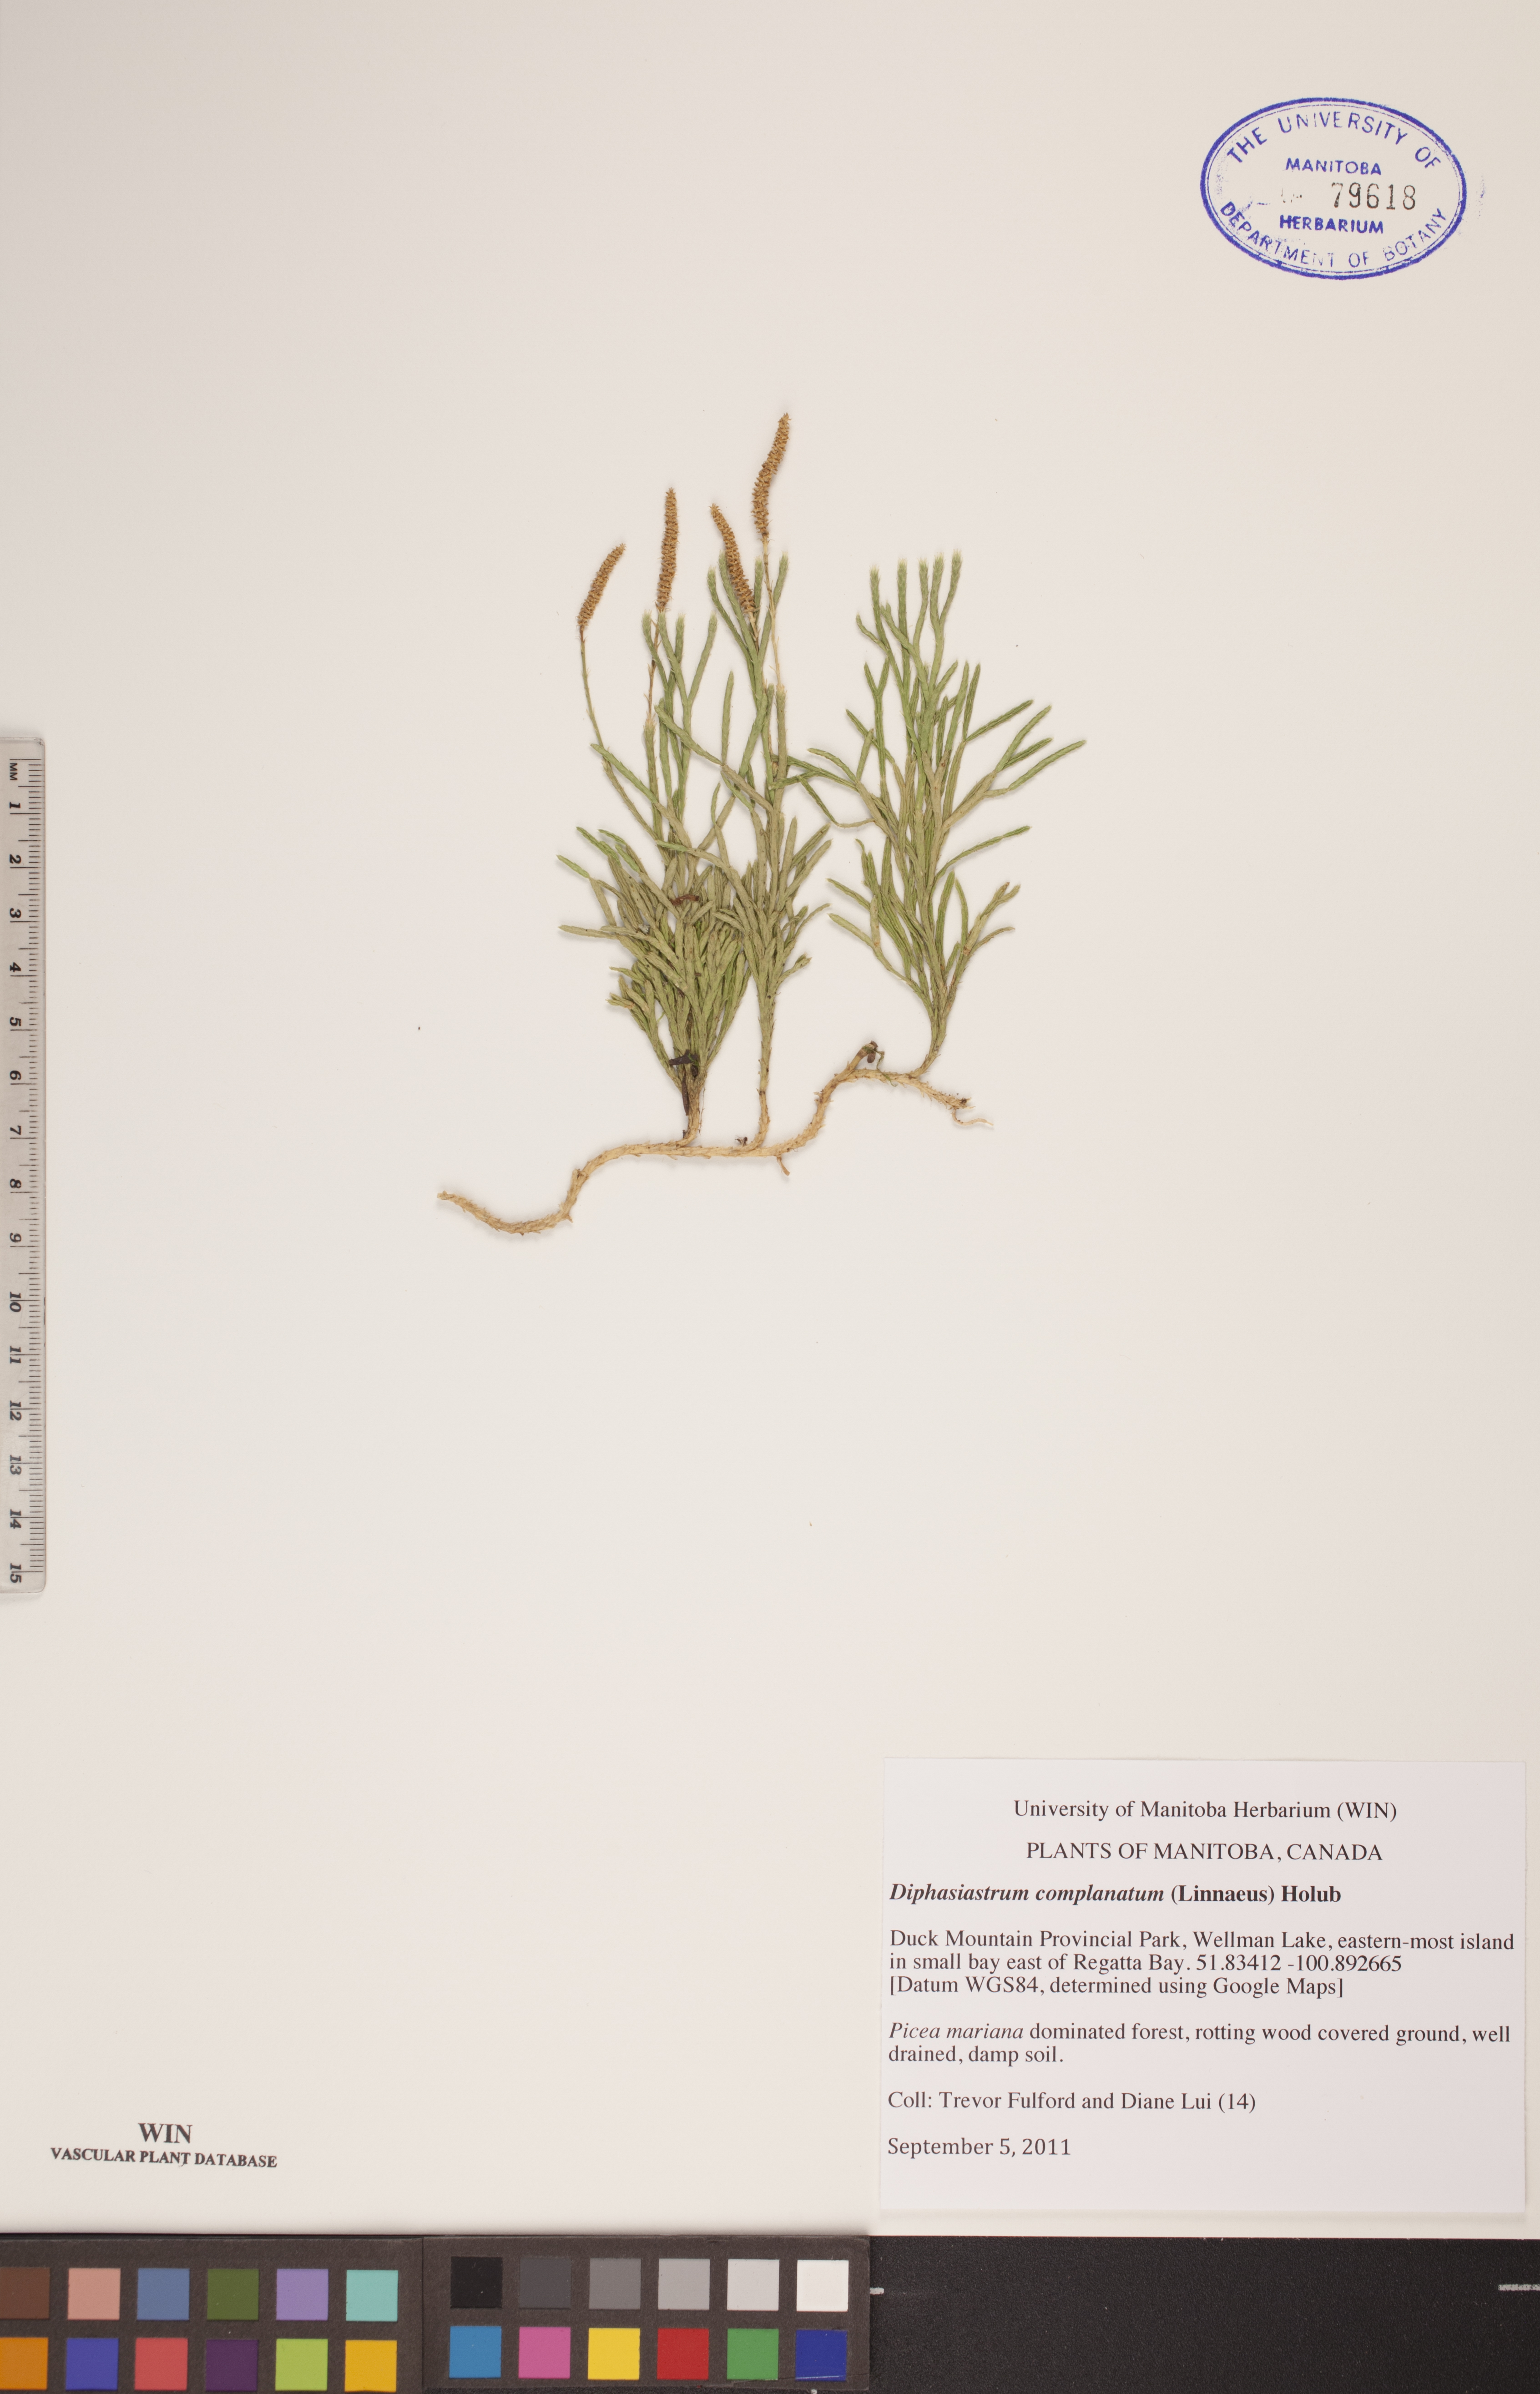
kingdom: Plantae
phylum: Tracheophyta
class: Lycopodiopsida
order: Lycopodiales
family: Lycopodiaceae
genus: Diphasiastrum
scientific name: Diphasiastrum complanatum
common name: Northern running-pine
